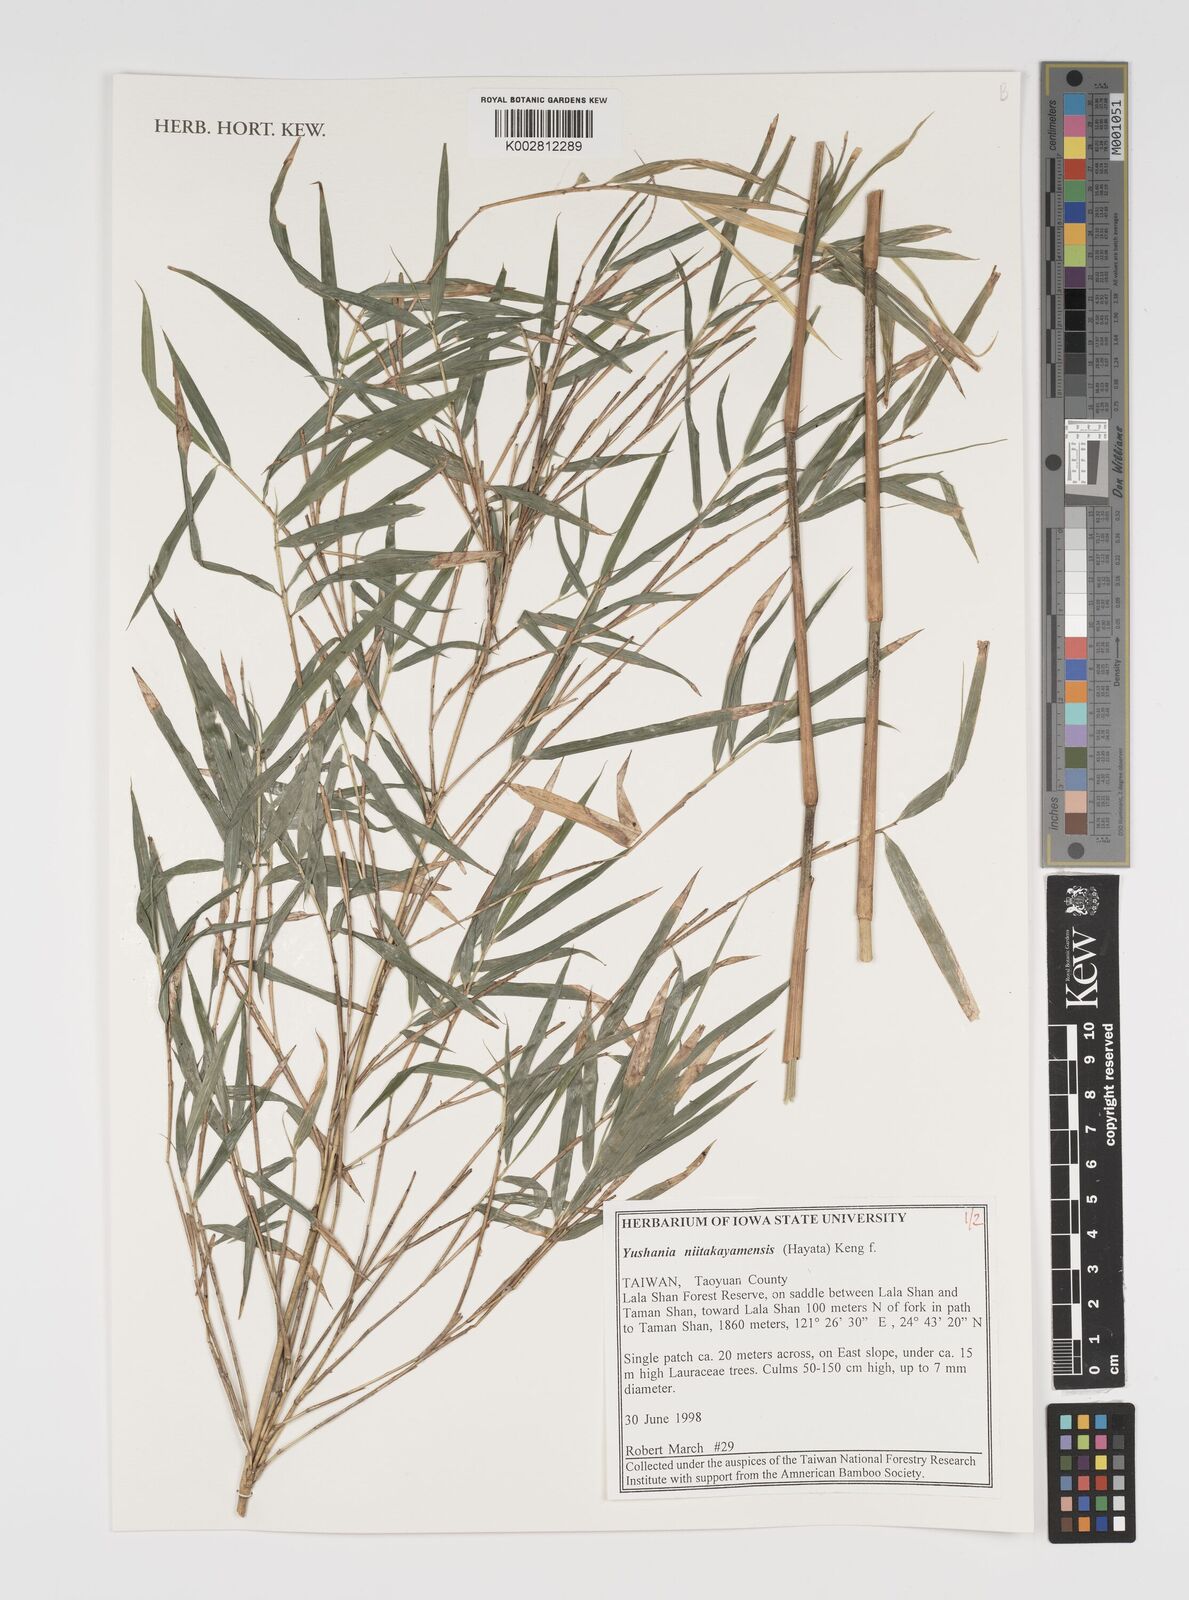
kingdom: Plantae
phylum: Tracheophyta
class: Liliopsida
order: Poales
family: Poaceae
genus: Yushania
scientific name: Yushania niitakayamensis
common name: Yushan cane
